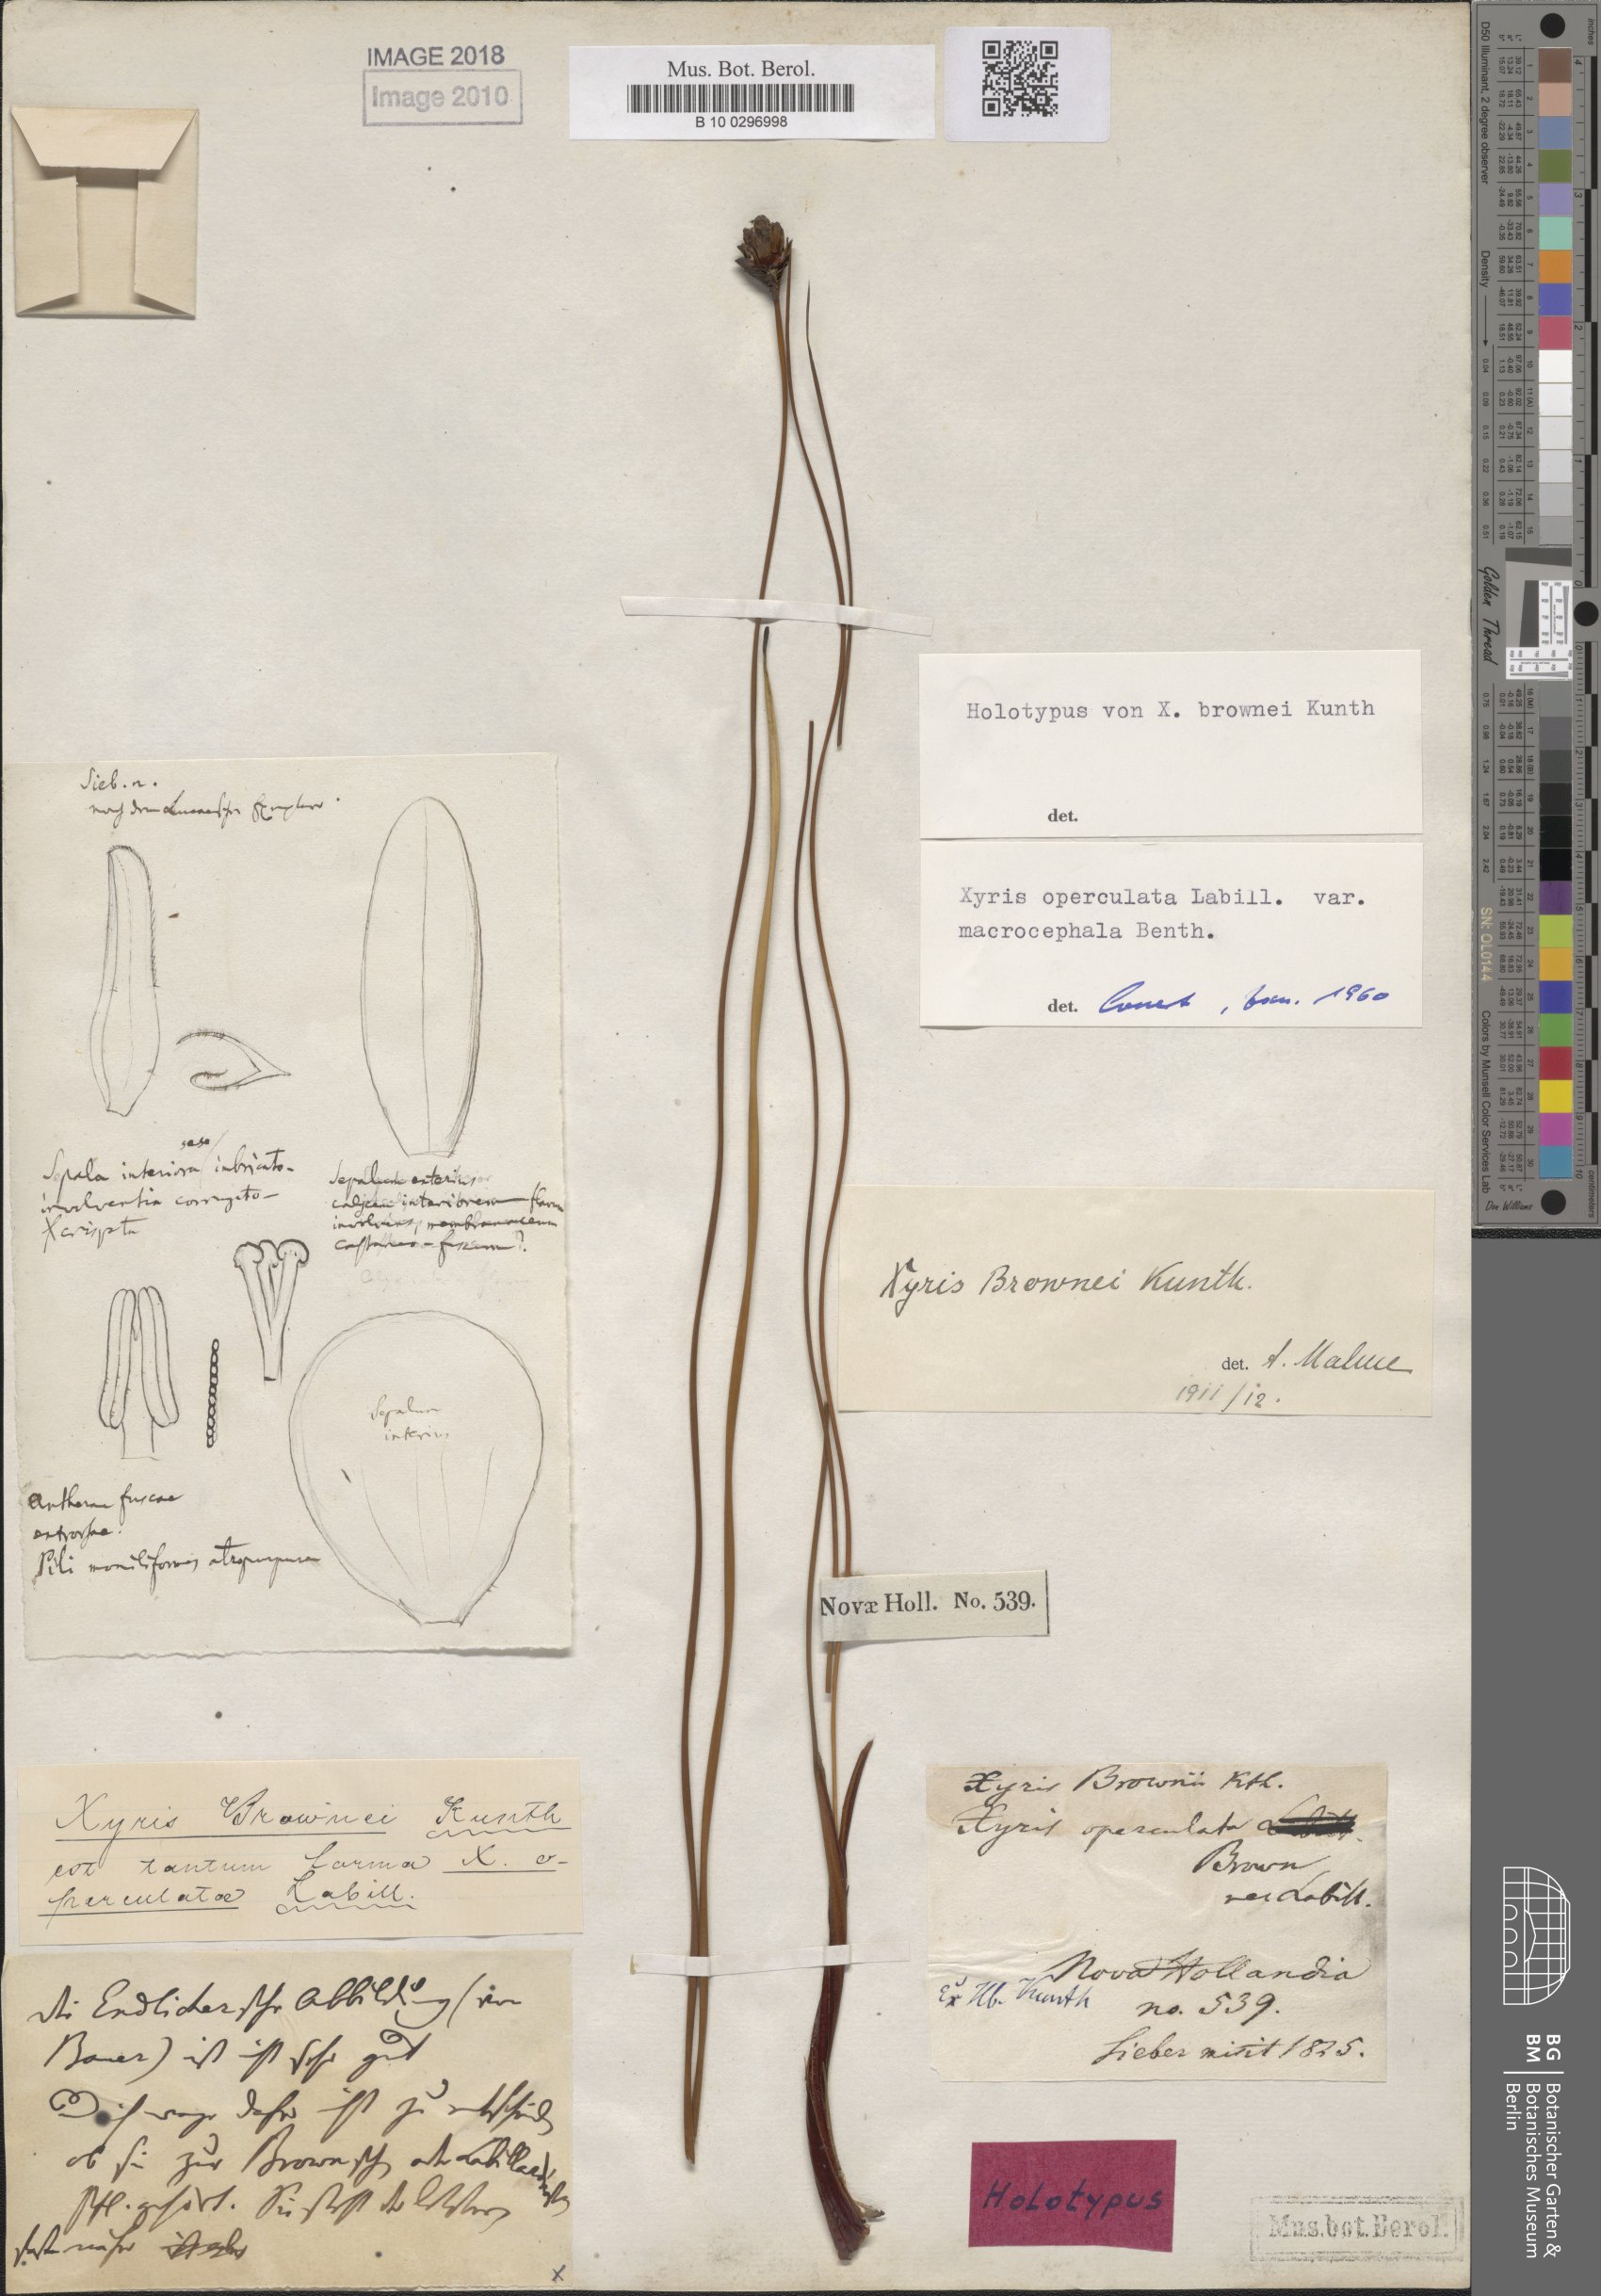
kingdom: Plantae
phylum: Tracheophyta
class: Liliopsida
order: Poales
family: Xyridaceae
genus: Xyris
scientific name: Xyris ustulata
